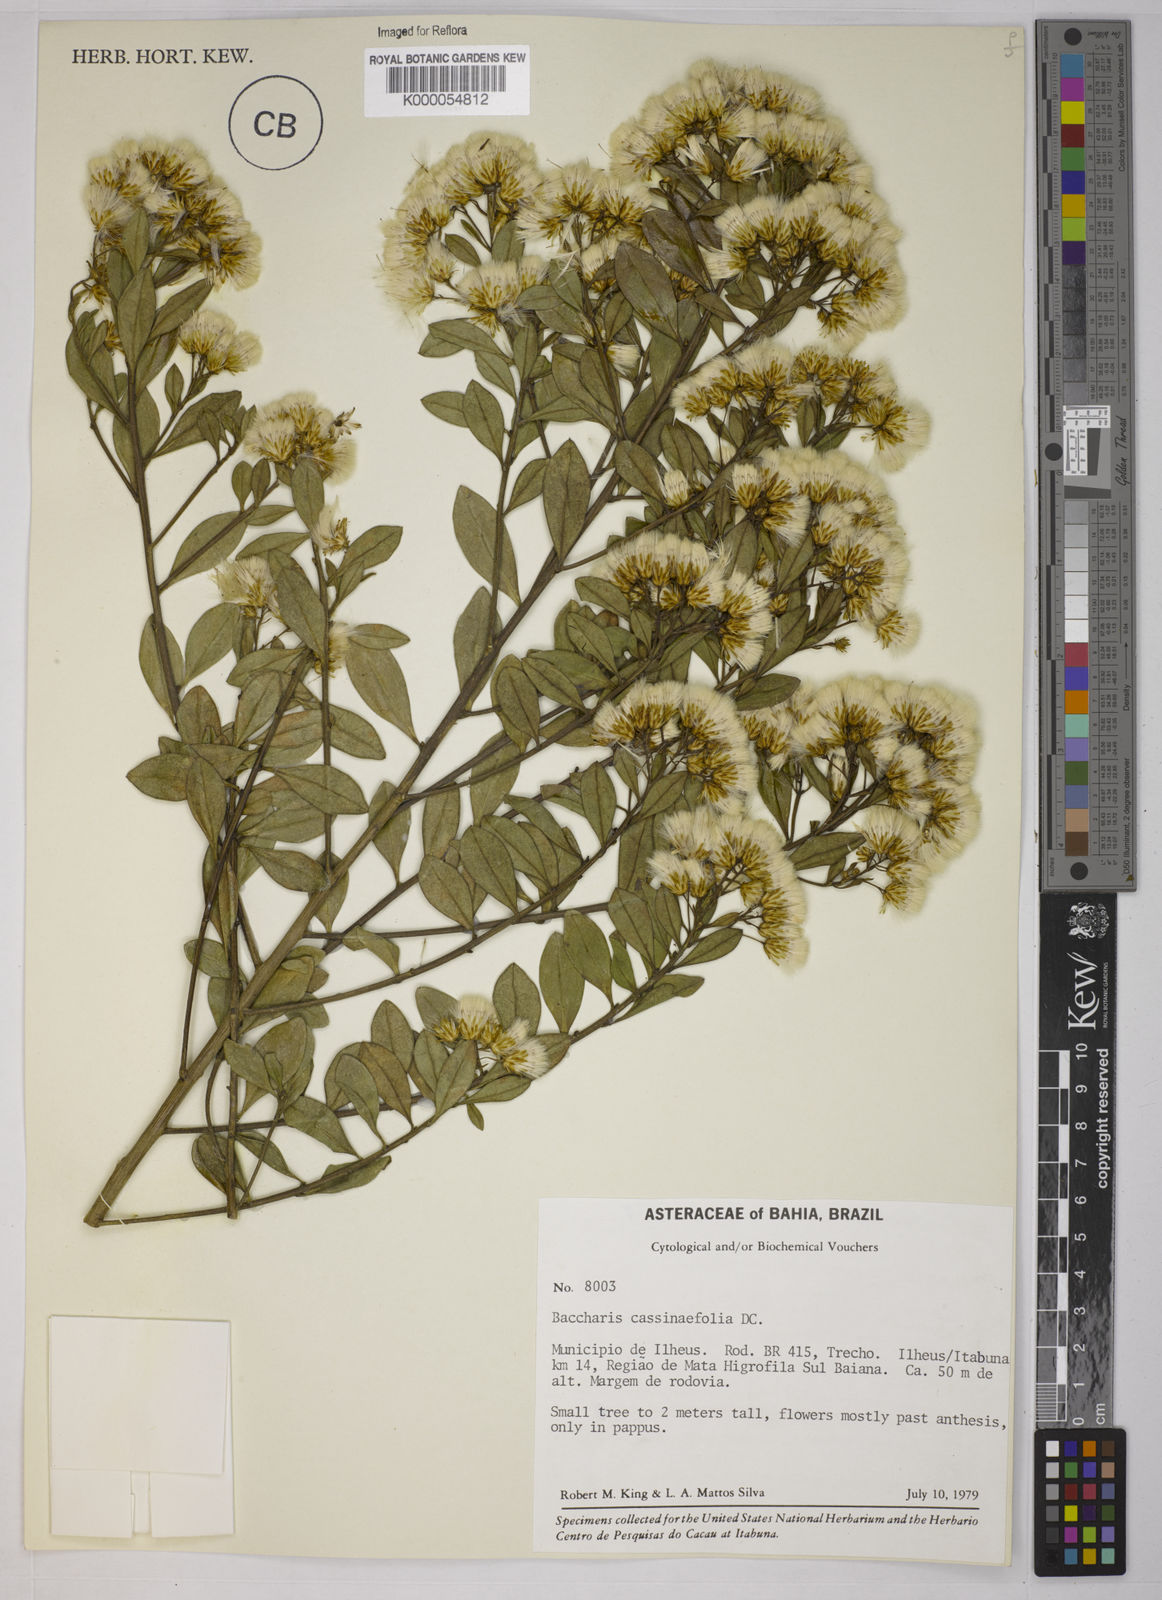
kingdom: Plantae
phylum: Tracheophyta
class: Magnoliopsida
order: Asterales
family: Asteraceae
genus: Baccharis
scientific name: Baccharis singularis
